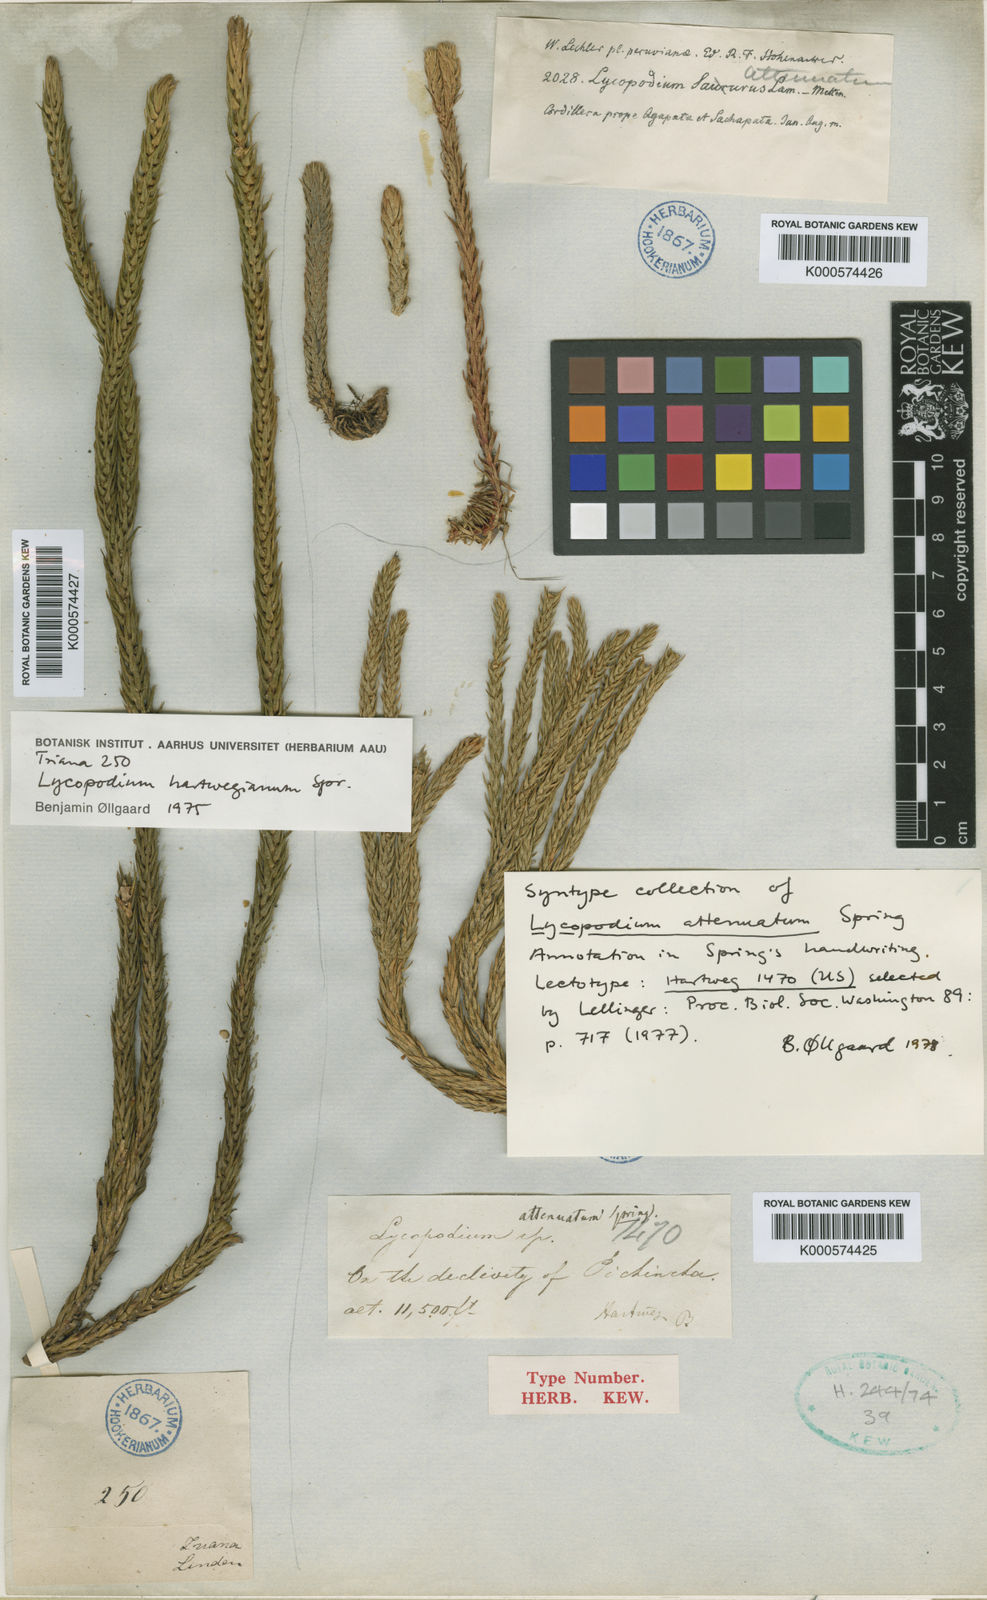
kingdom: Plantae
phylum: Tracheophyta
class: Lycopodiopsida
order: Lycopodiales
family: Lycopodiaceae
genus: Phlegmariurus
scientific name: Phlegmariurus attenuatus
